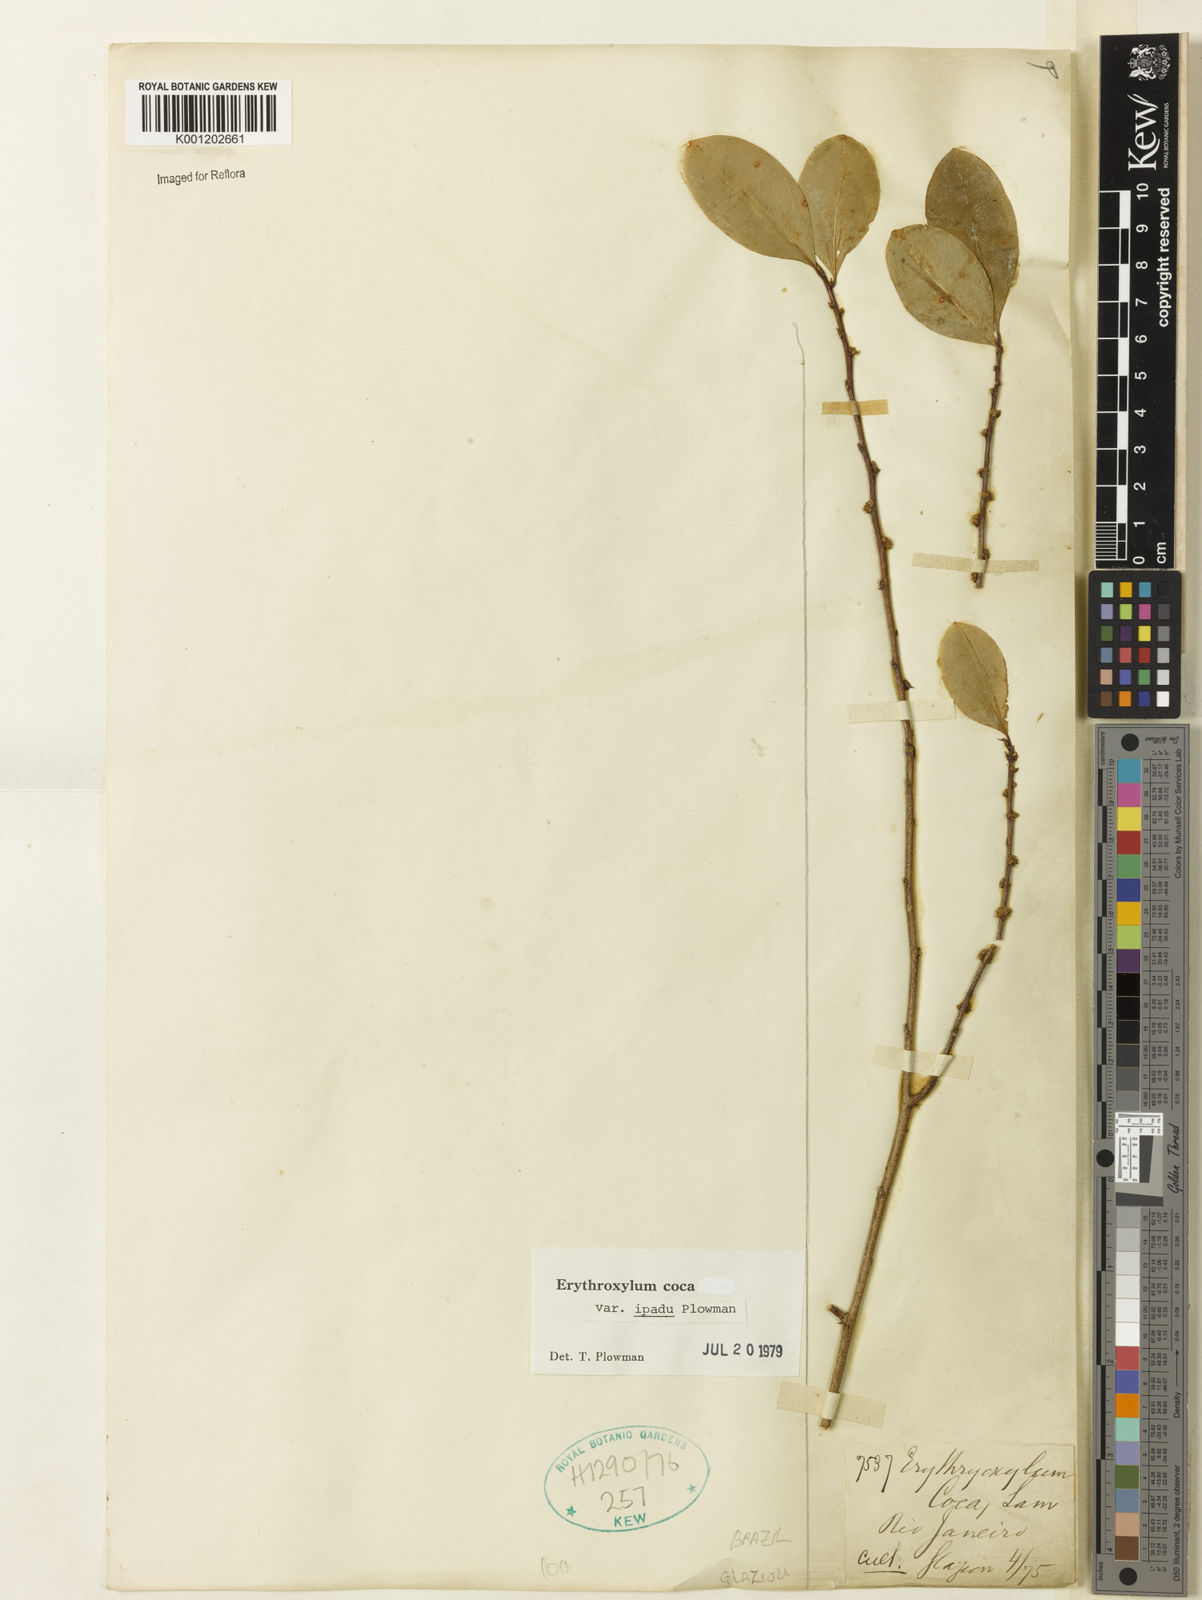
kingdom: Plantae
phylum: Tracheophyta
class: Magnoliopsida
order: Malpighiales
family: Erythroxylaceae
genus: Erythroxylum
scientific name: Erythroxylum coca
